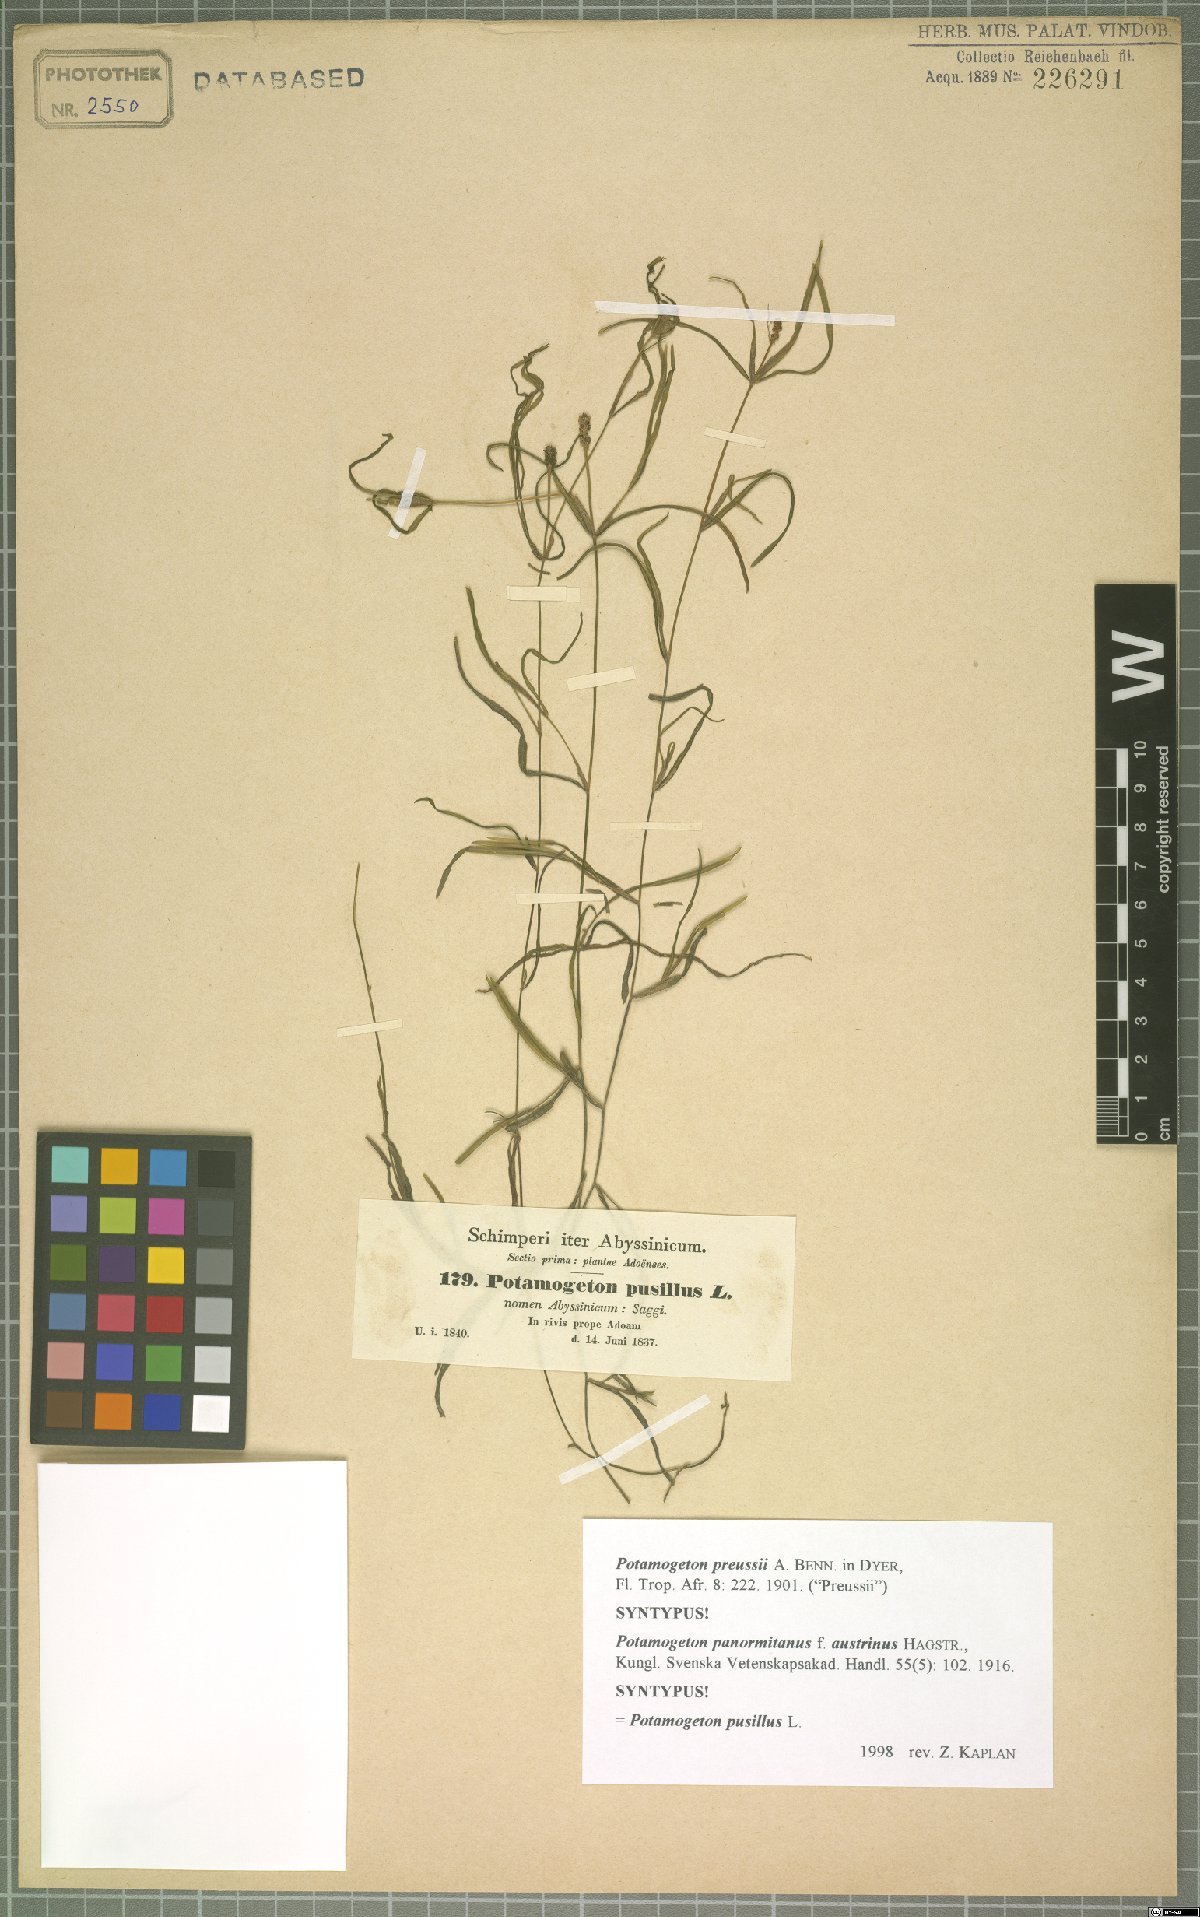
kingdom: Plantae
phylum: Tracheophyta
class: Liliopsida
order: Alismatales
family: Potamogetonaceae
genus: Potamogeton
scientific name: Potamogeton pusillus
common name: Lesser pondweed
